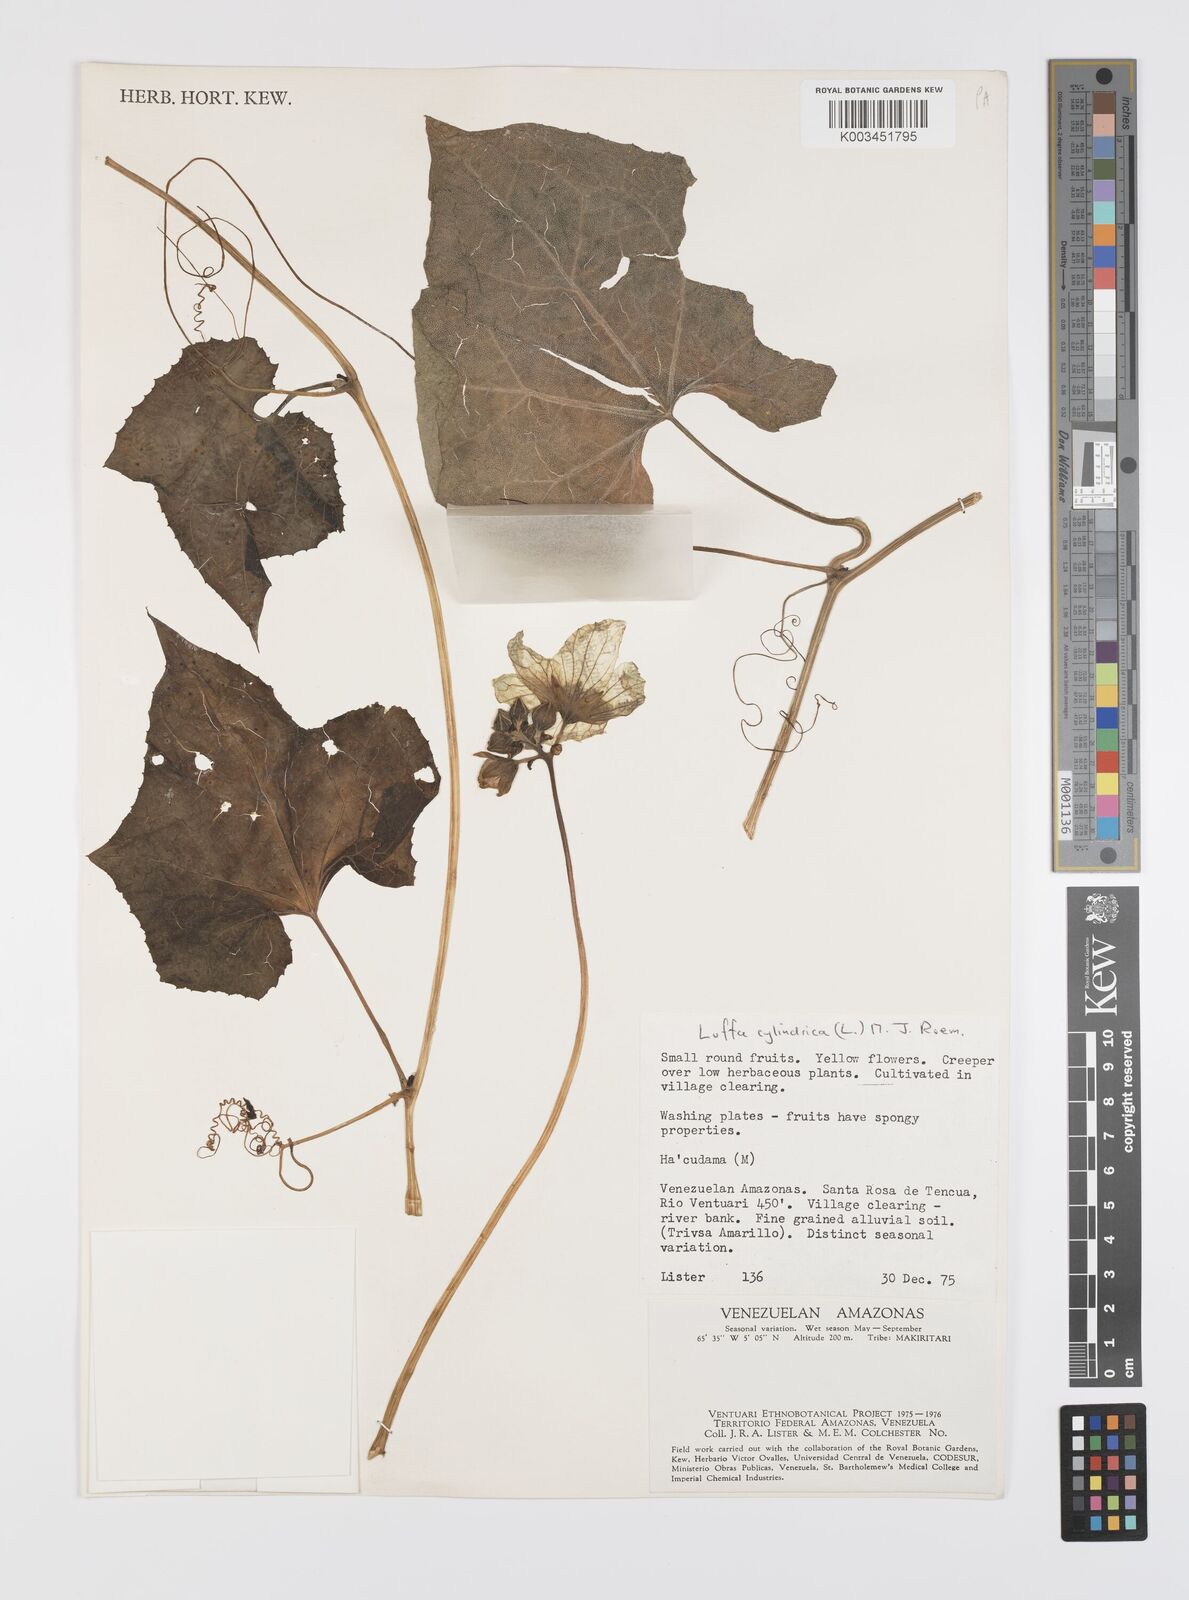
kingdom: Plantae
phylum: Tracheophyta
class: Magnoliopsida
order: Cucurbitales
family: Cucurbitaceae
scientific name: Cucurbitaceae
